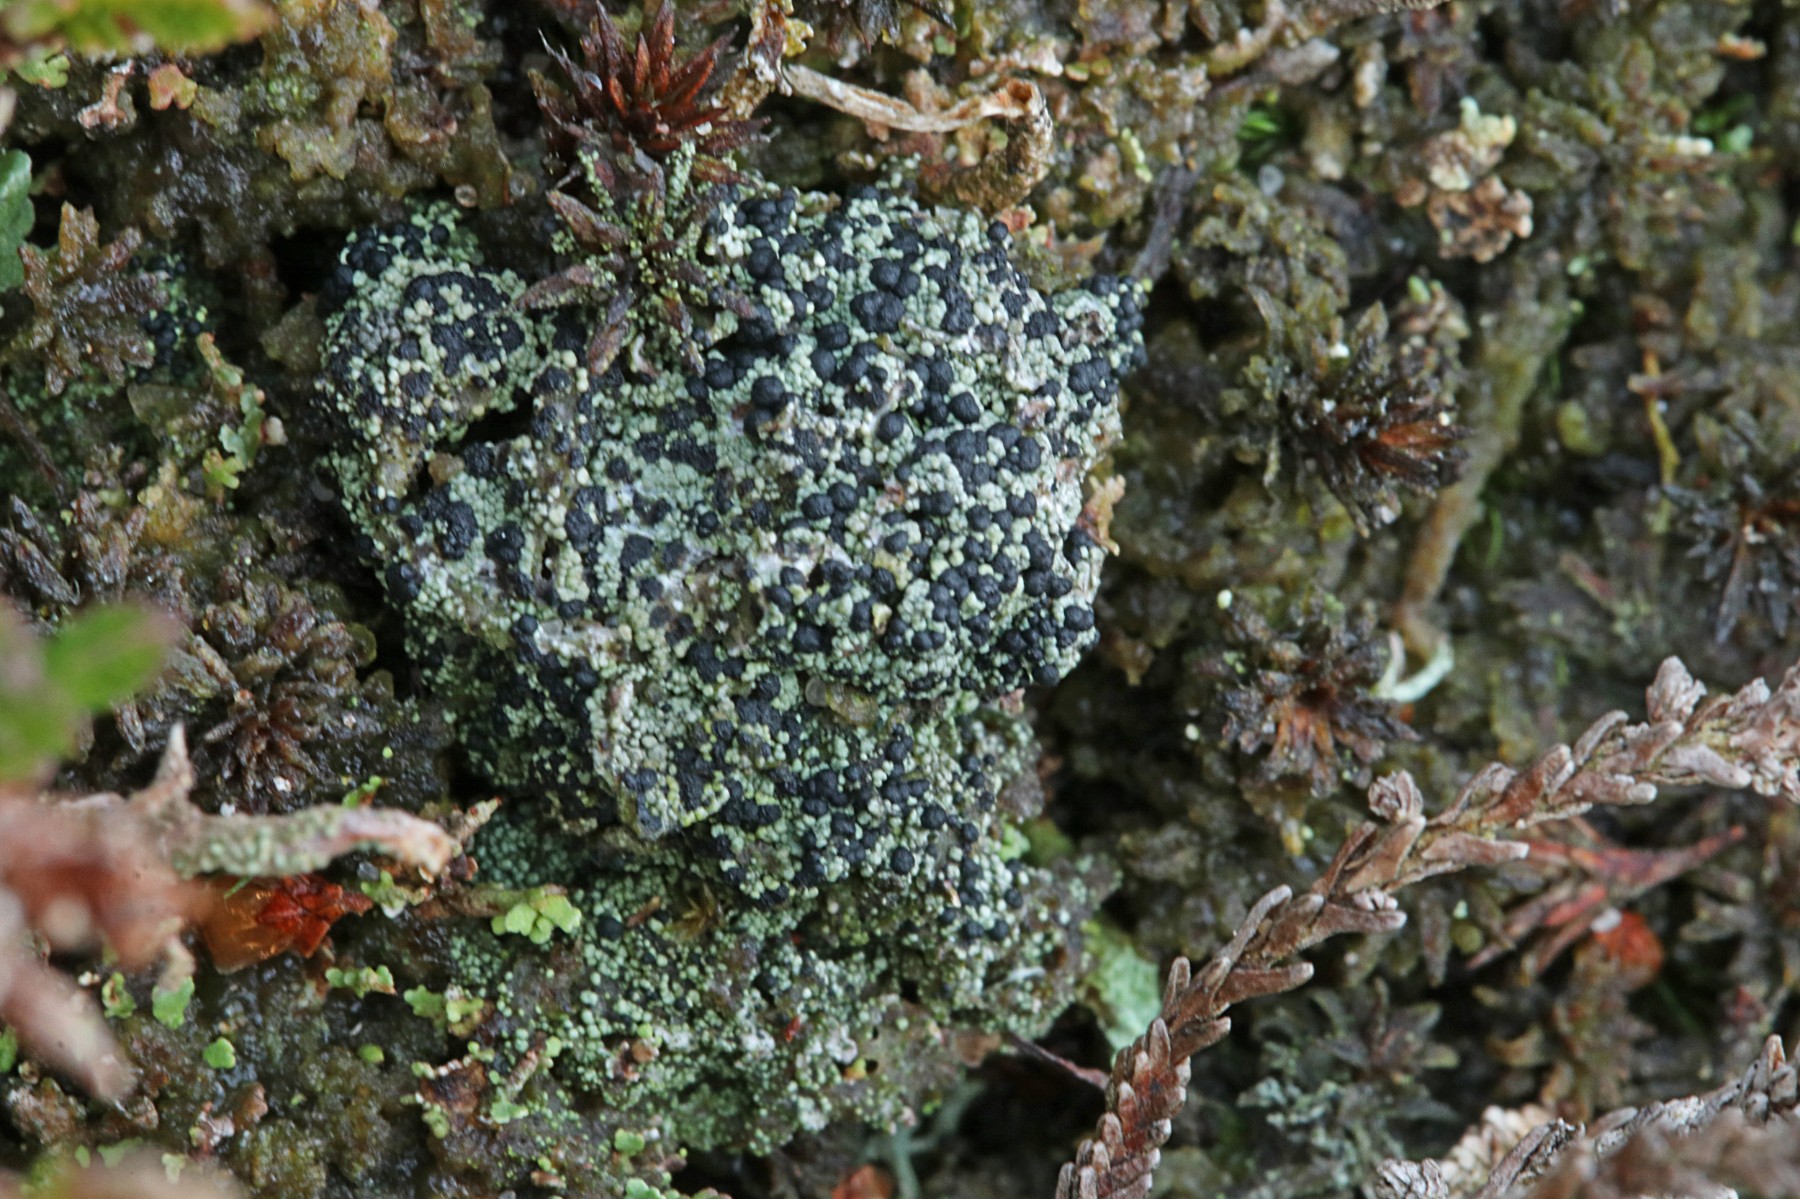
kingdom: Fungi
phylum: Ascomycota
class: Lecanoromycetes
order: Lecanorales
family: Byssolomataceae
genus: Micarea
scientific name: Micarea lignaria
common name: tørve-knaplav
